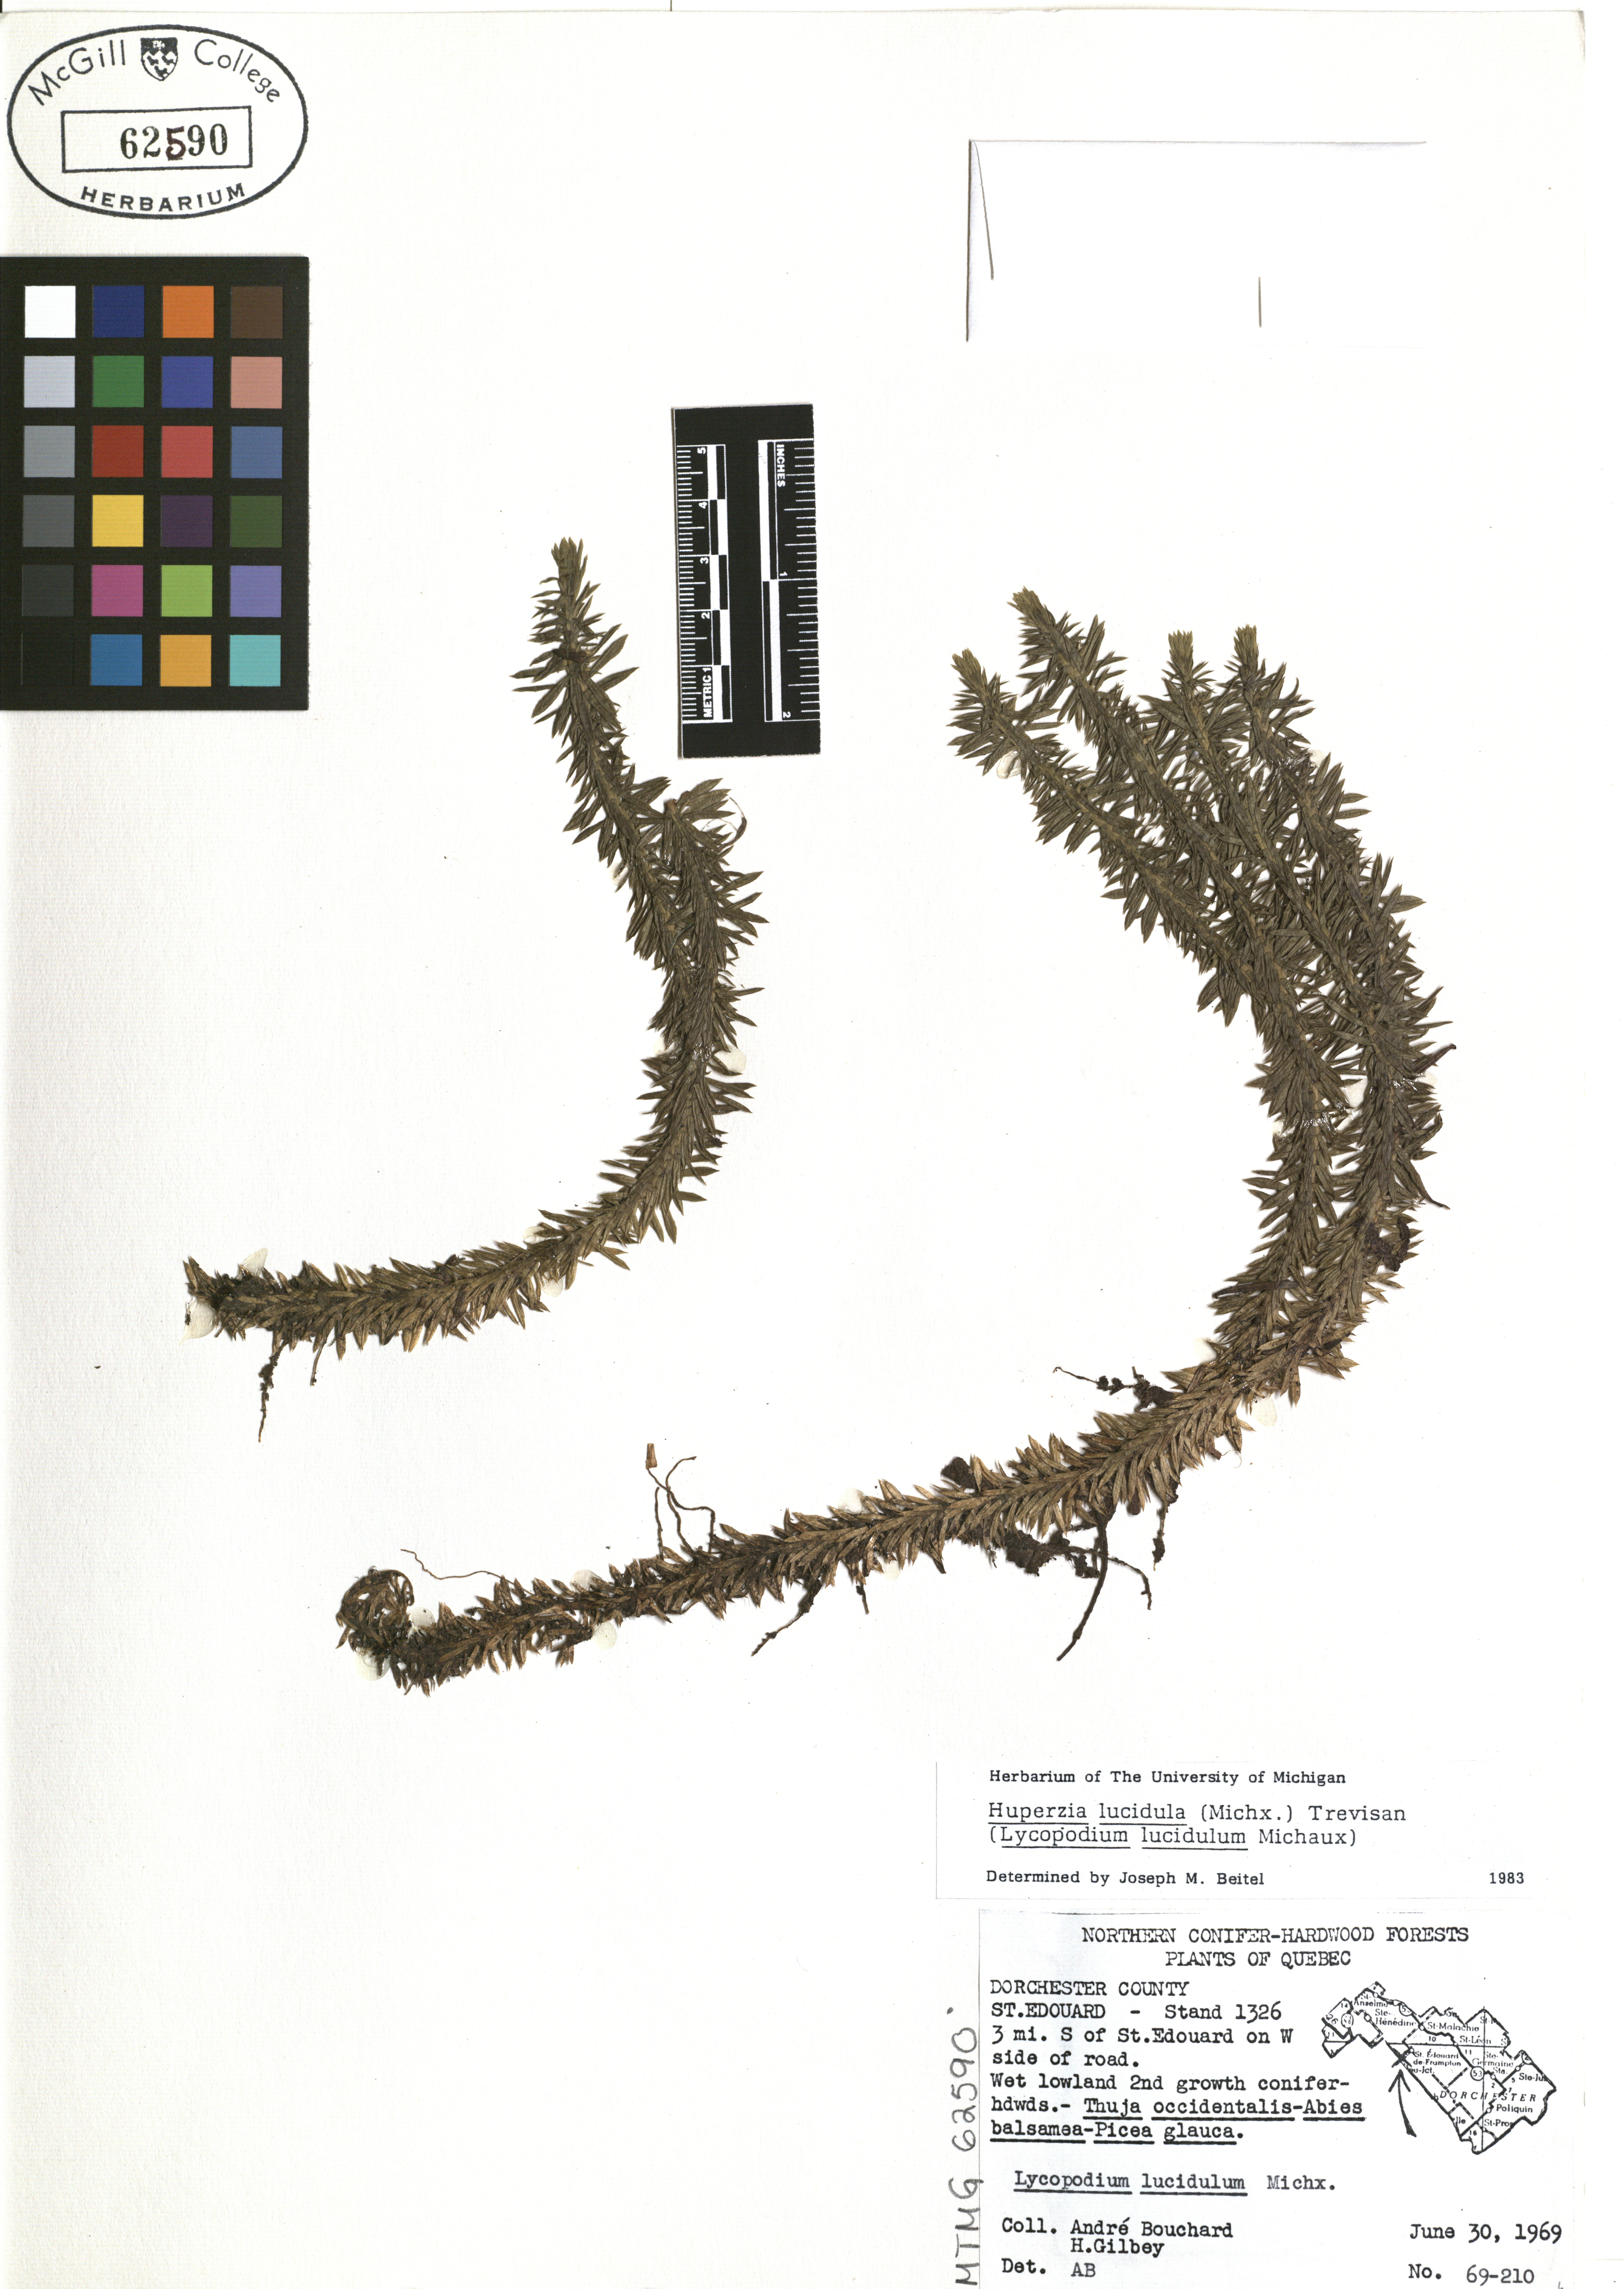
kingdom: Plantae
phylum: Tracheophyta
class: Lycopodiopsida
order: Lycopodiales
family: Lycopodiaceae
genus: Huperzia
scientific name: Huperzia lucidula
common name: Shining clubmoss
